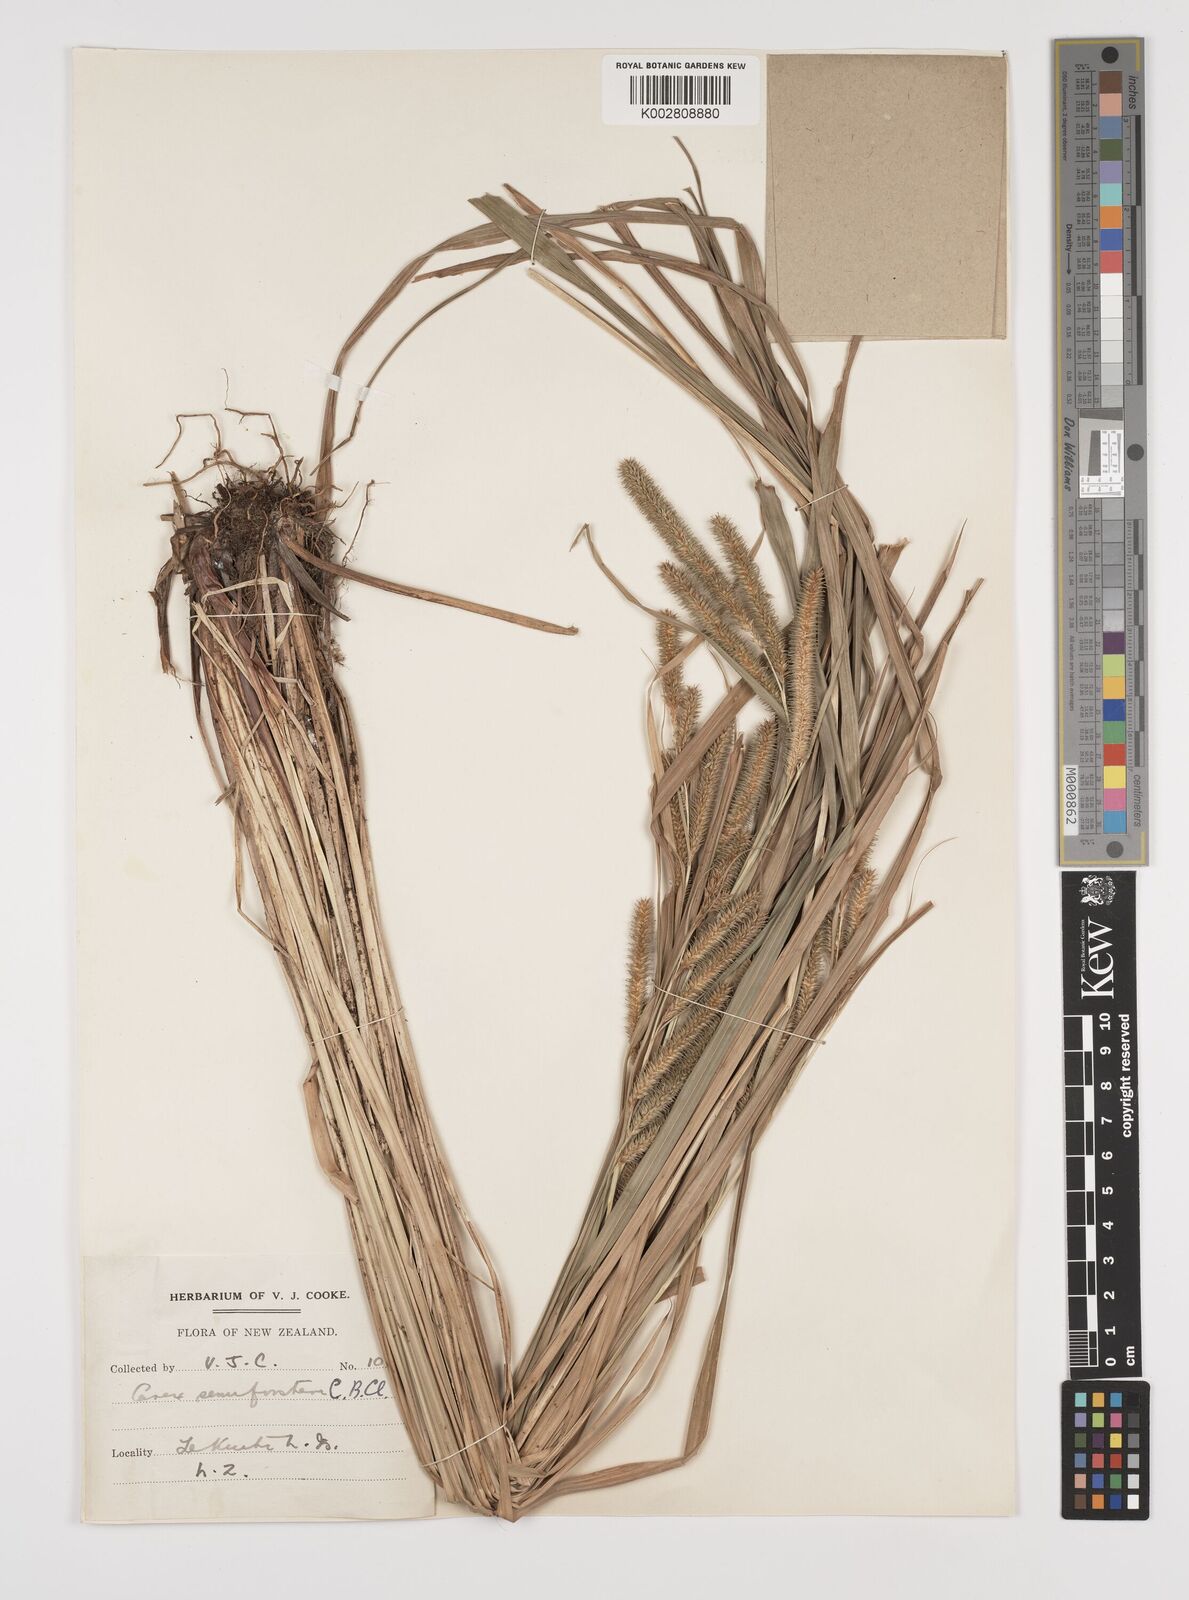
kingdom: Plantae
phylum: Tracheophyta
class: Liliopsida
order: Poales
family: Cyperaceae
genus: Carex
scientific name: Carex forsteri
